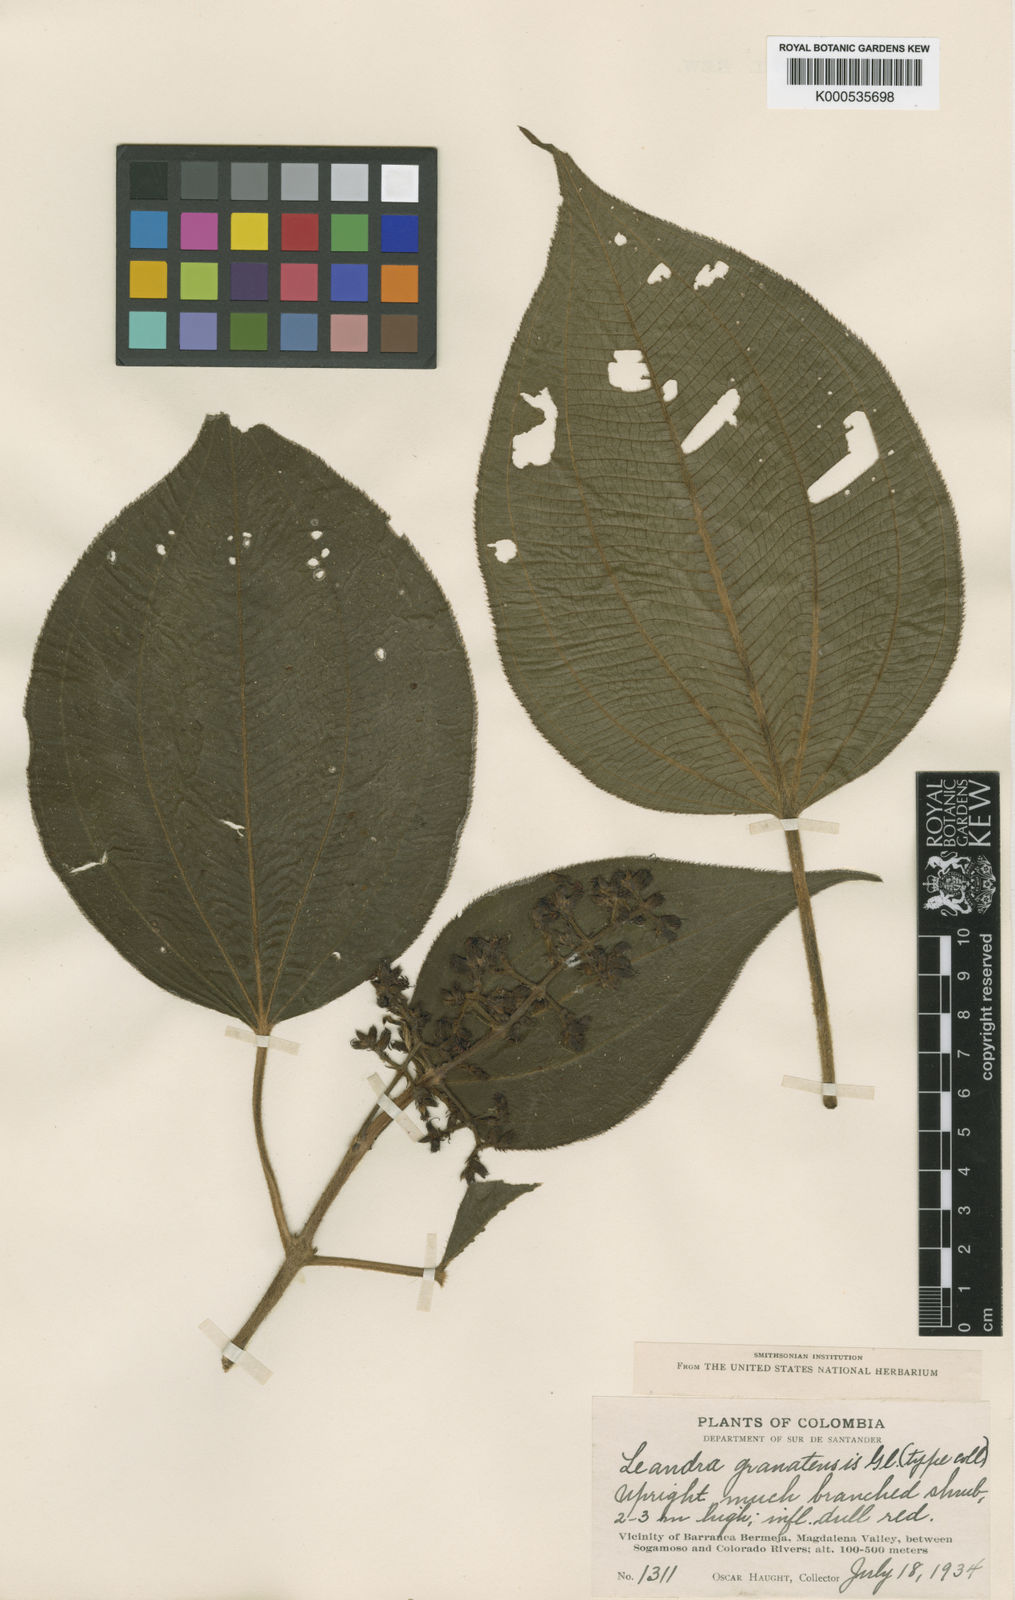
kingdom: Plantae
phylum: Tracheophyta
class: Magnoliopsida
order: Myrtales
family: Melastomataceae
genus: Miconia
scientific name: Miconia granatensis
